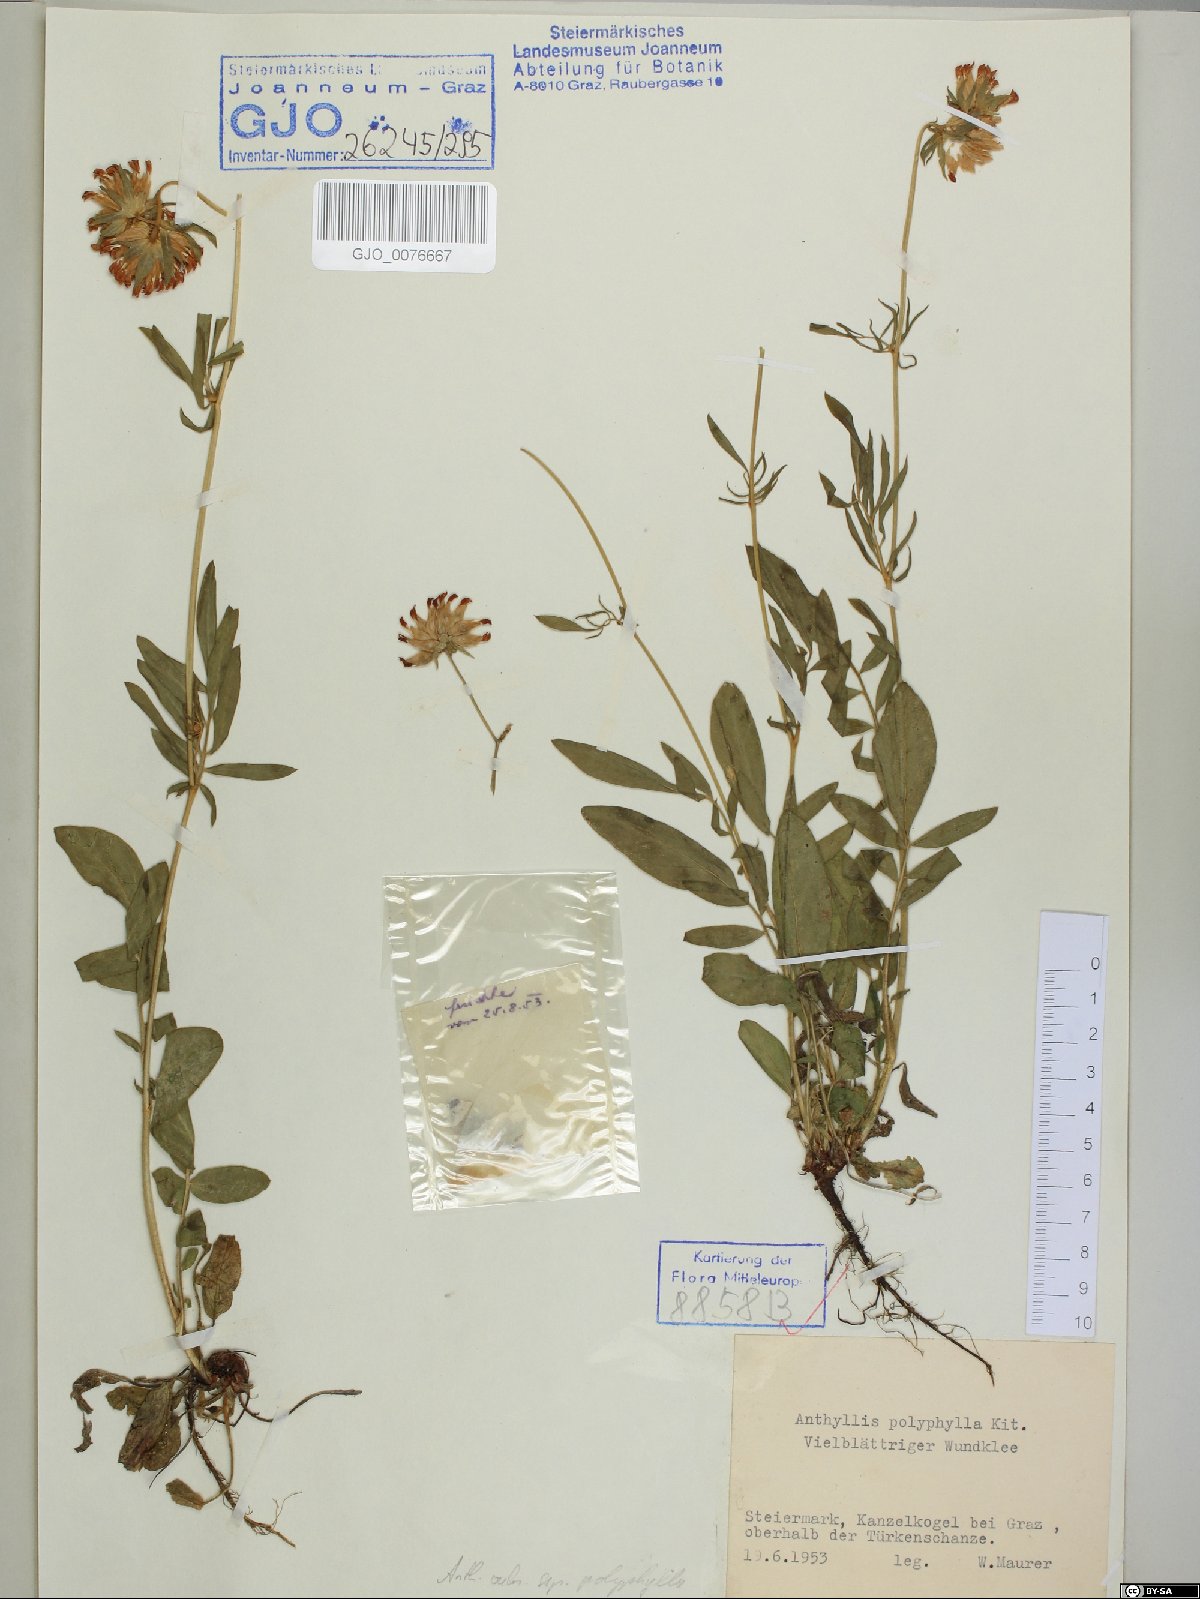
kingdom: Plantae
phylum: Tracheophyta
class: Magnoliopsida
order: Fabales
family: Fabaceae
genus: Anthyllis
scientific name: Anthyllis vulneraria
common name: Kidney vetch
